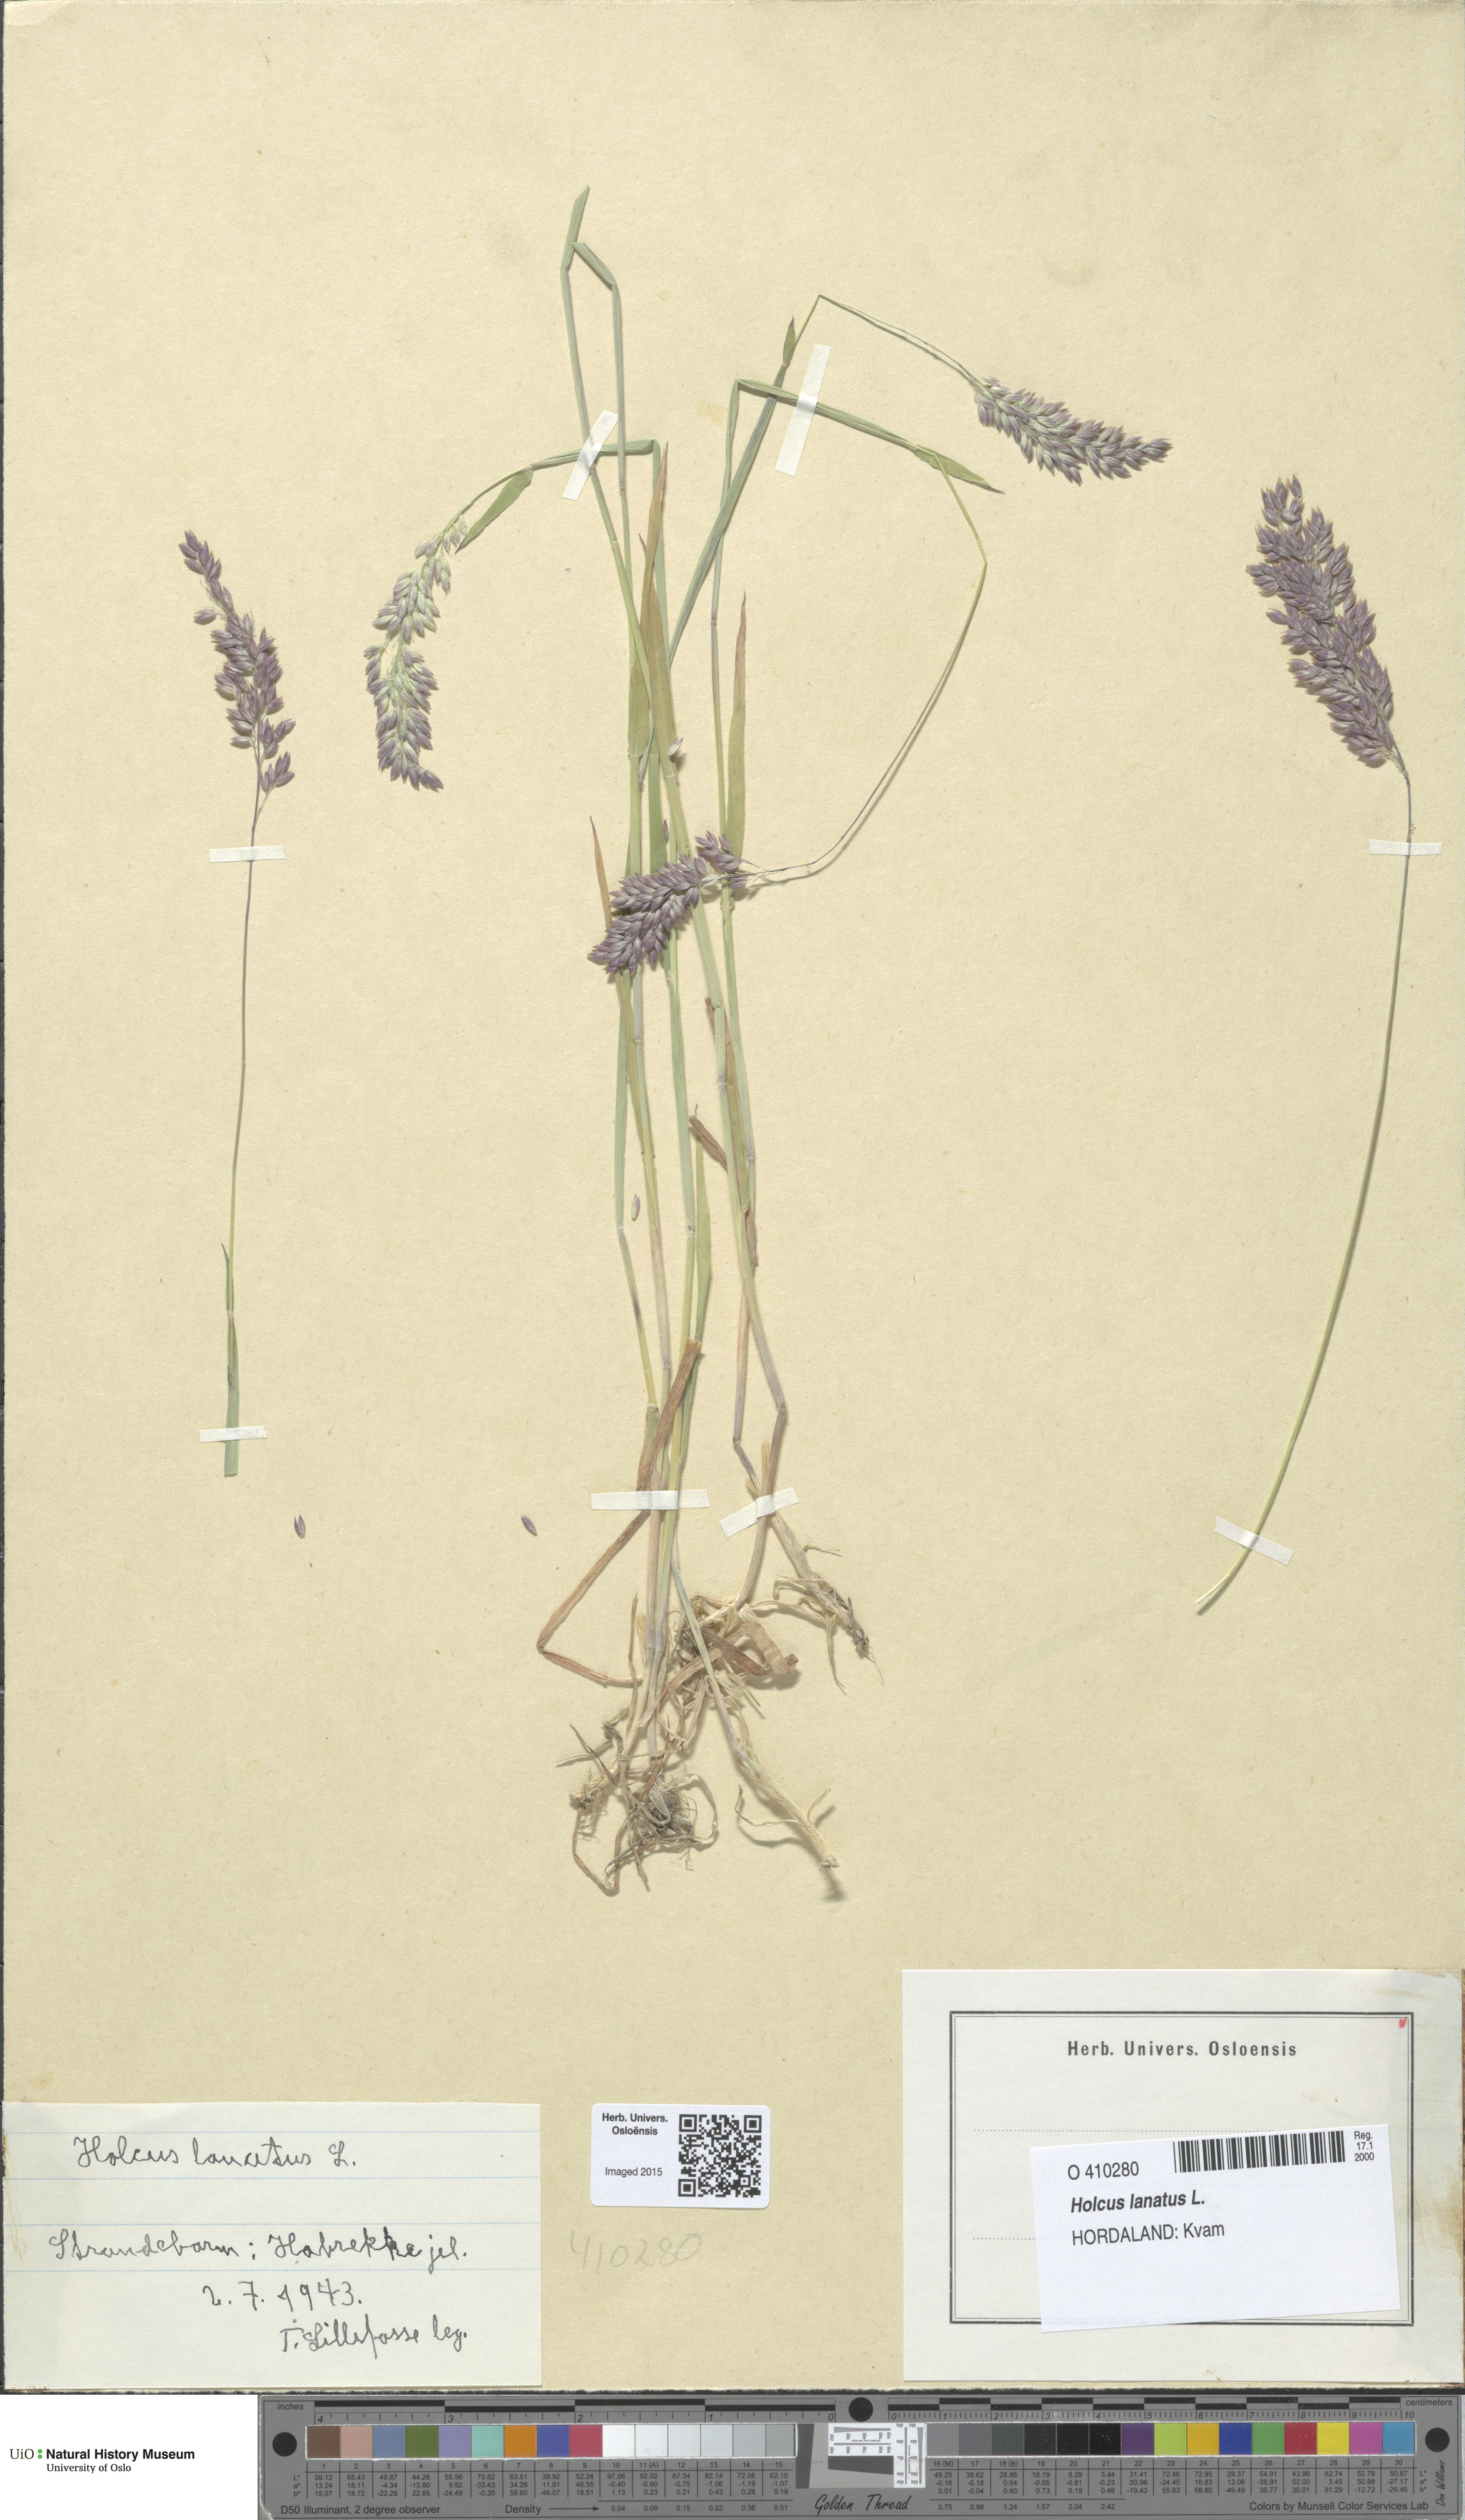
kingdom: Plantae
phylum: Tracheophyta
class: Liliopsida
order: Poales
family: Poaceae
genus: Holcus
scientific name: Holcus lanatus
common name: Yorkshire-fog
